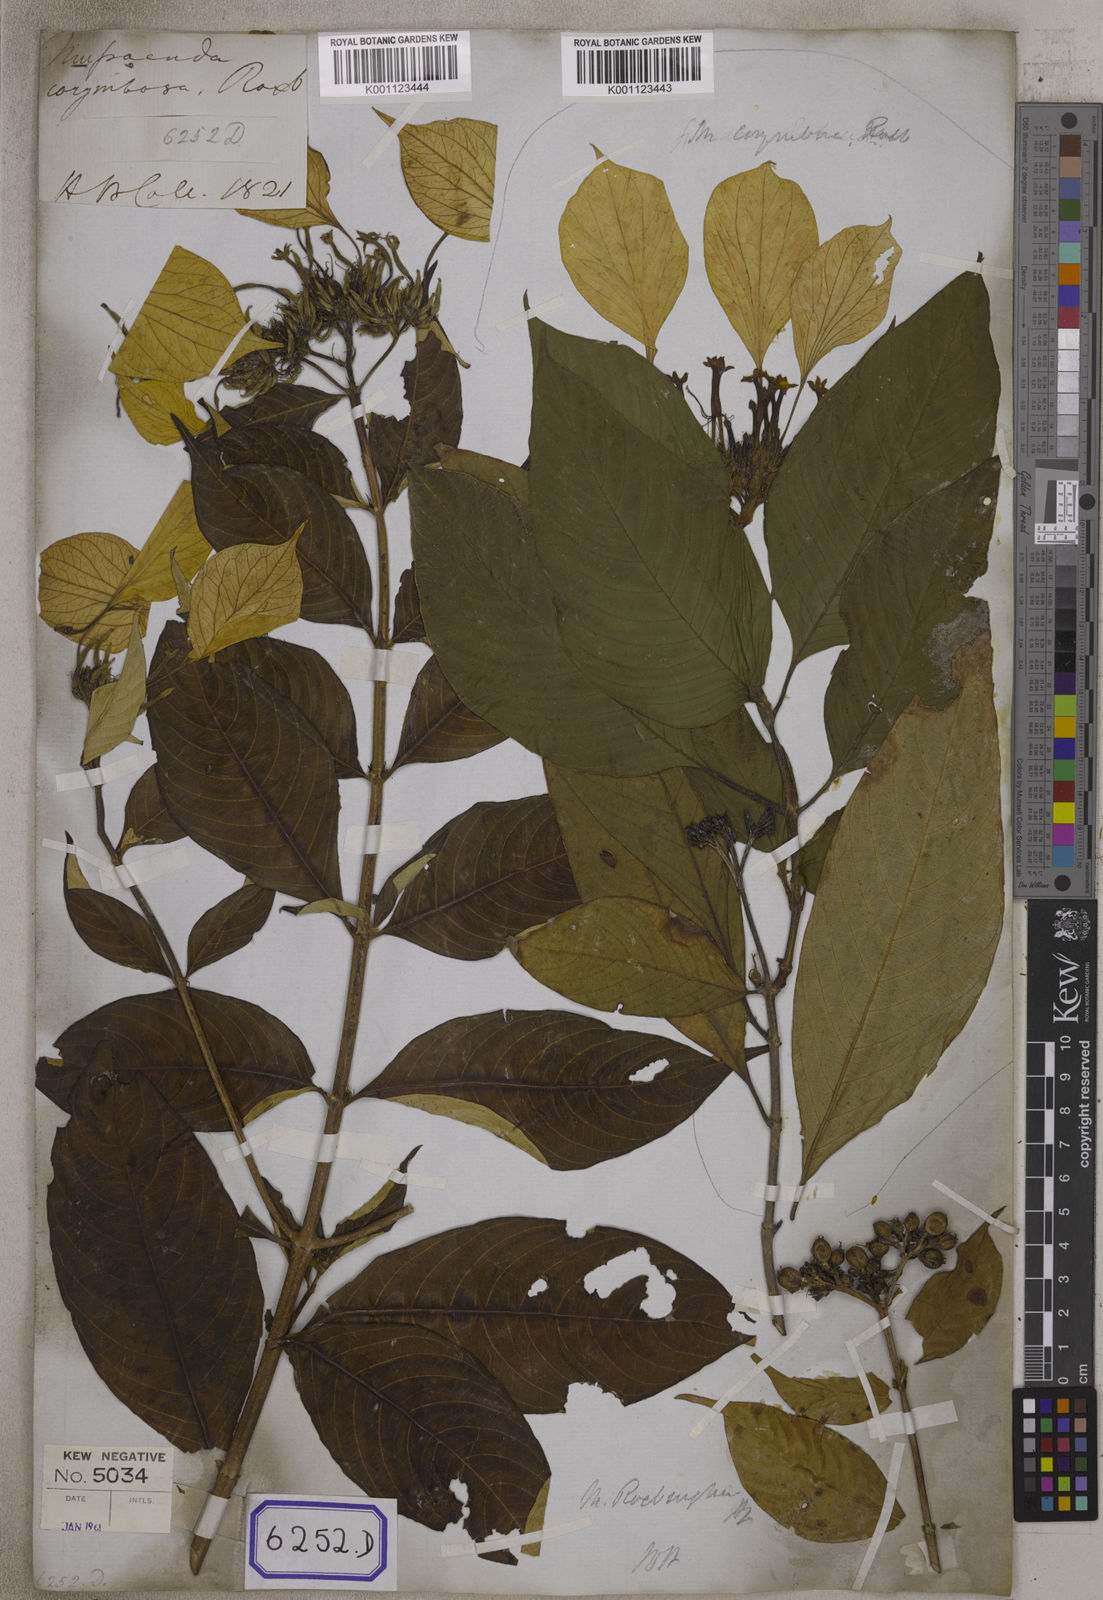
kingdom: Plantae
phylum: Tracheophyta
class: Magnoliopsida
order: Gentianales
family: Rubiaceae
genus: Mussaenda
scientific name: Mussaenda
